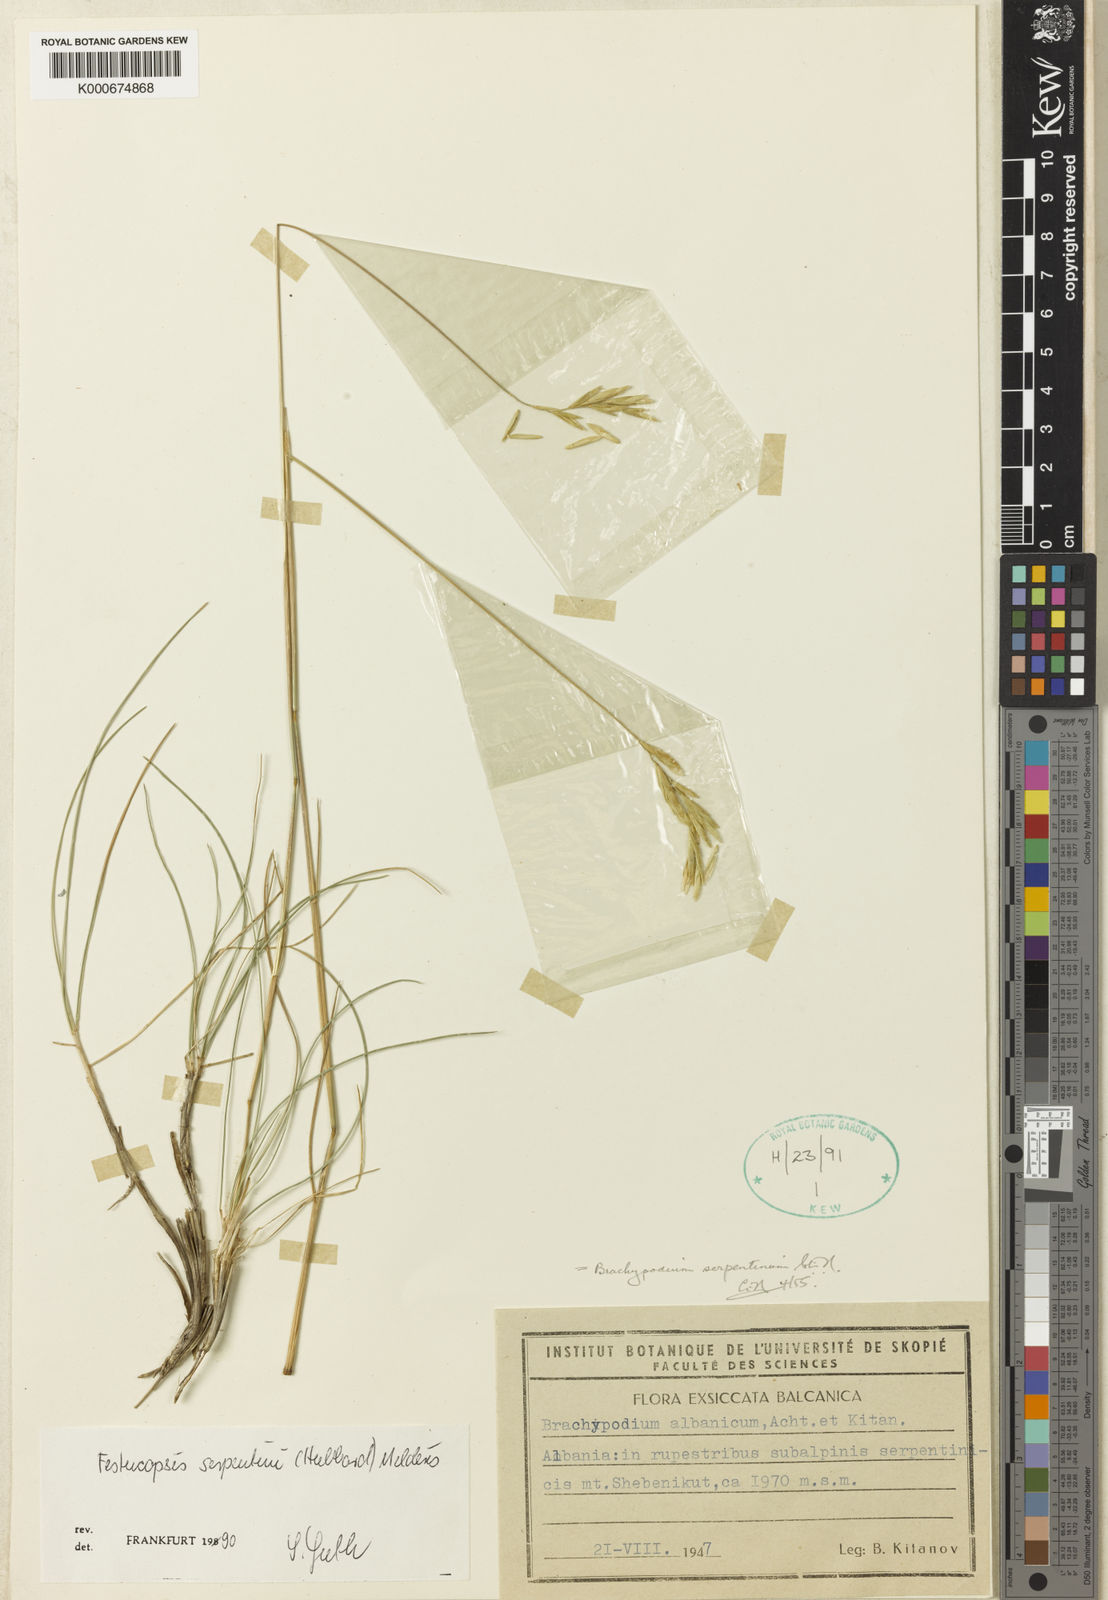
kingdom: Plantae
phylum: Tracheophyta
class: Liliopsida
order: Poales
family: Poaceae
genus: Elymus
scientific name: Elymus serpentinus
